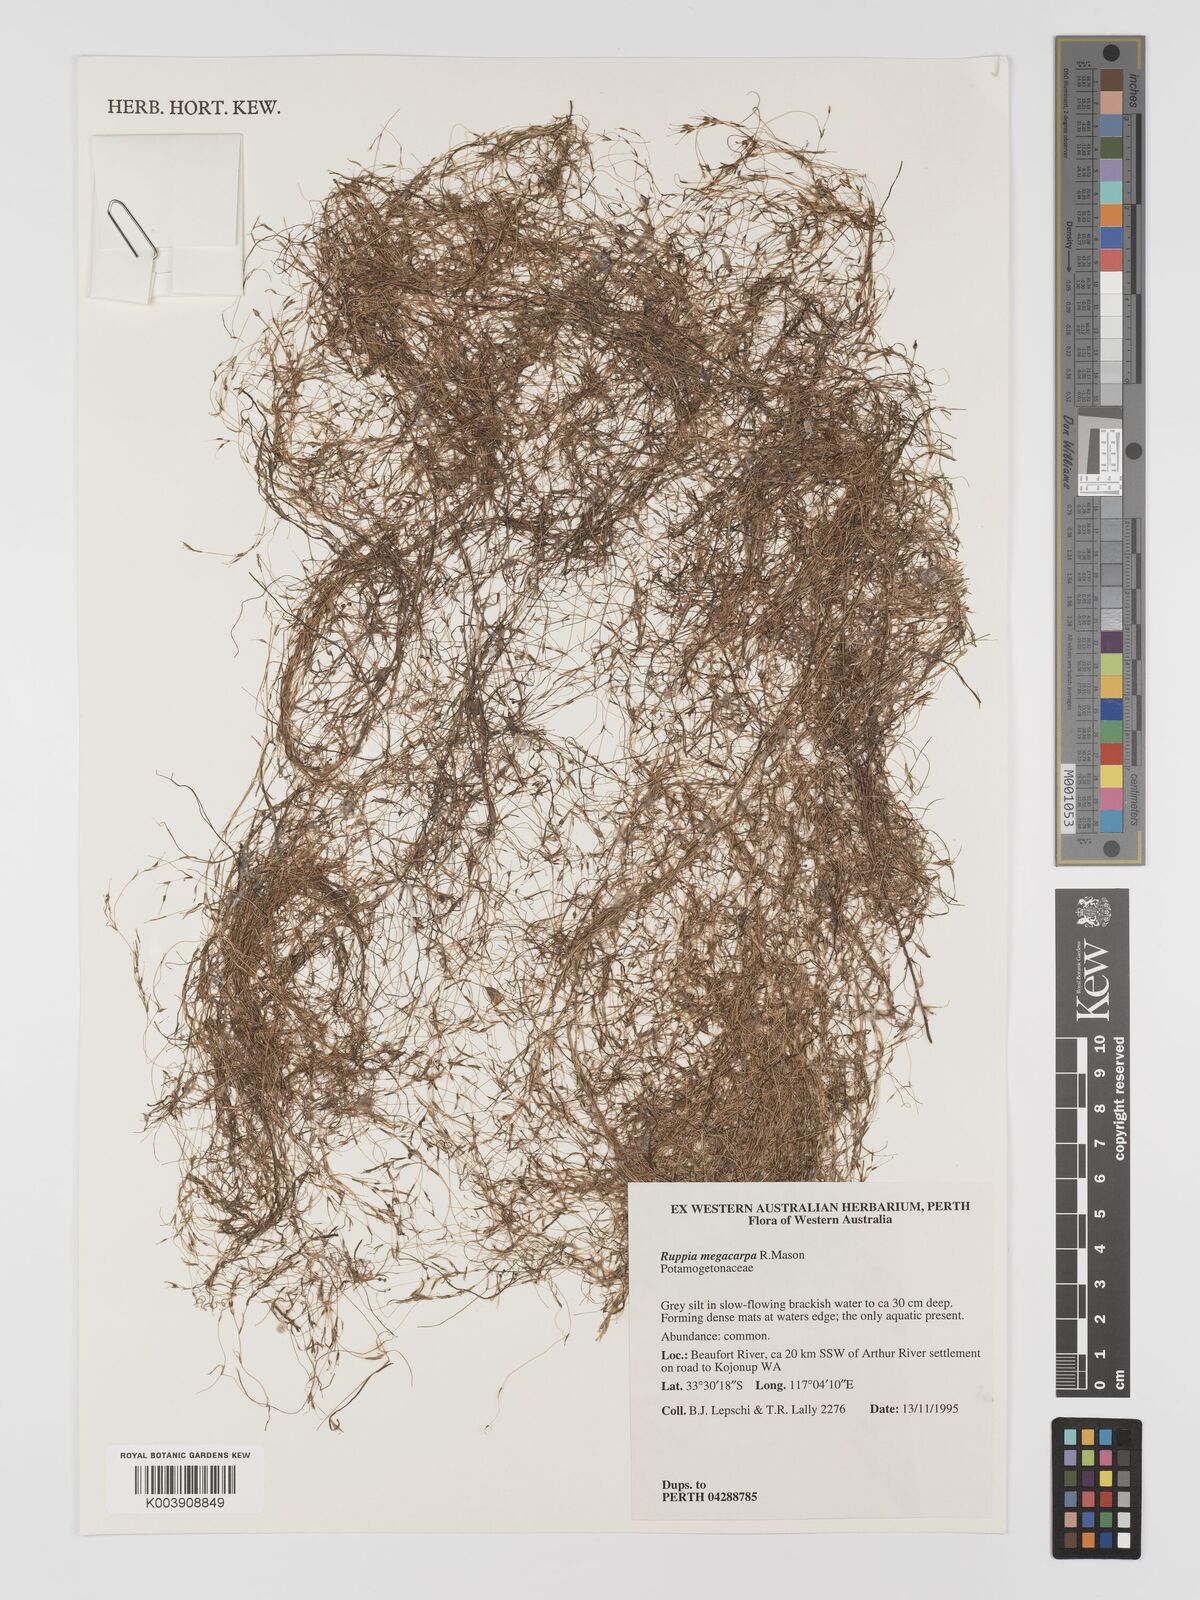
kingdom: Plantae
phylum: Tracheophyta
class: Liliopsida
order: Alismatales
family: Ruppiaceae
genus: Ruppia
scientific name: Ruppia megacarpa
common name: Large-fruit seatassel
